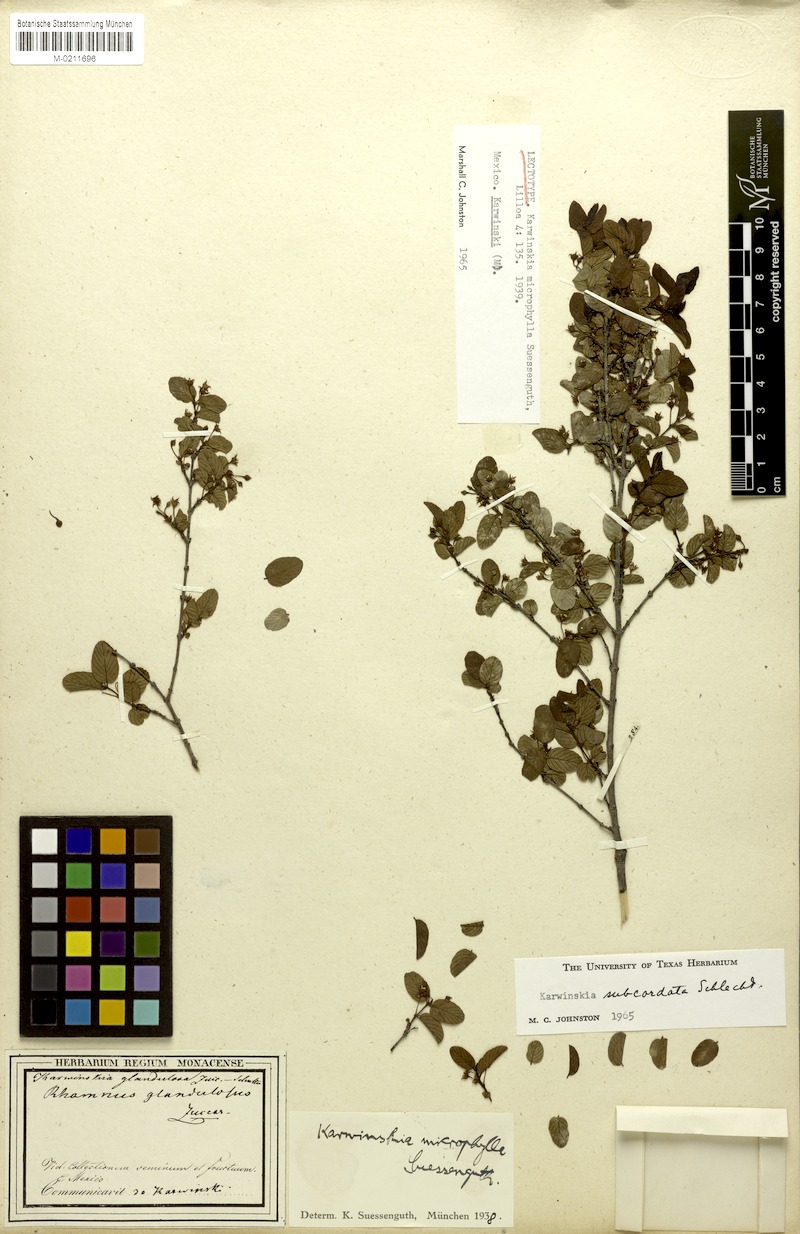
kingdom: Plantae
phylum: Tracheophyta
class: Magnoliopsida
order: Rosales
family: Rhamnaceae
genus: Karwinskia
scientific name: Karwinskia subcordata
